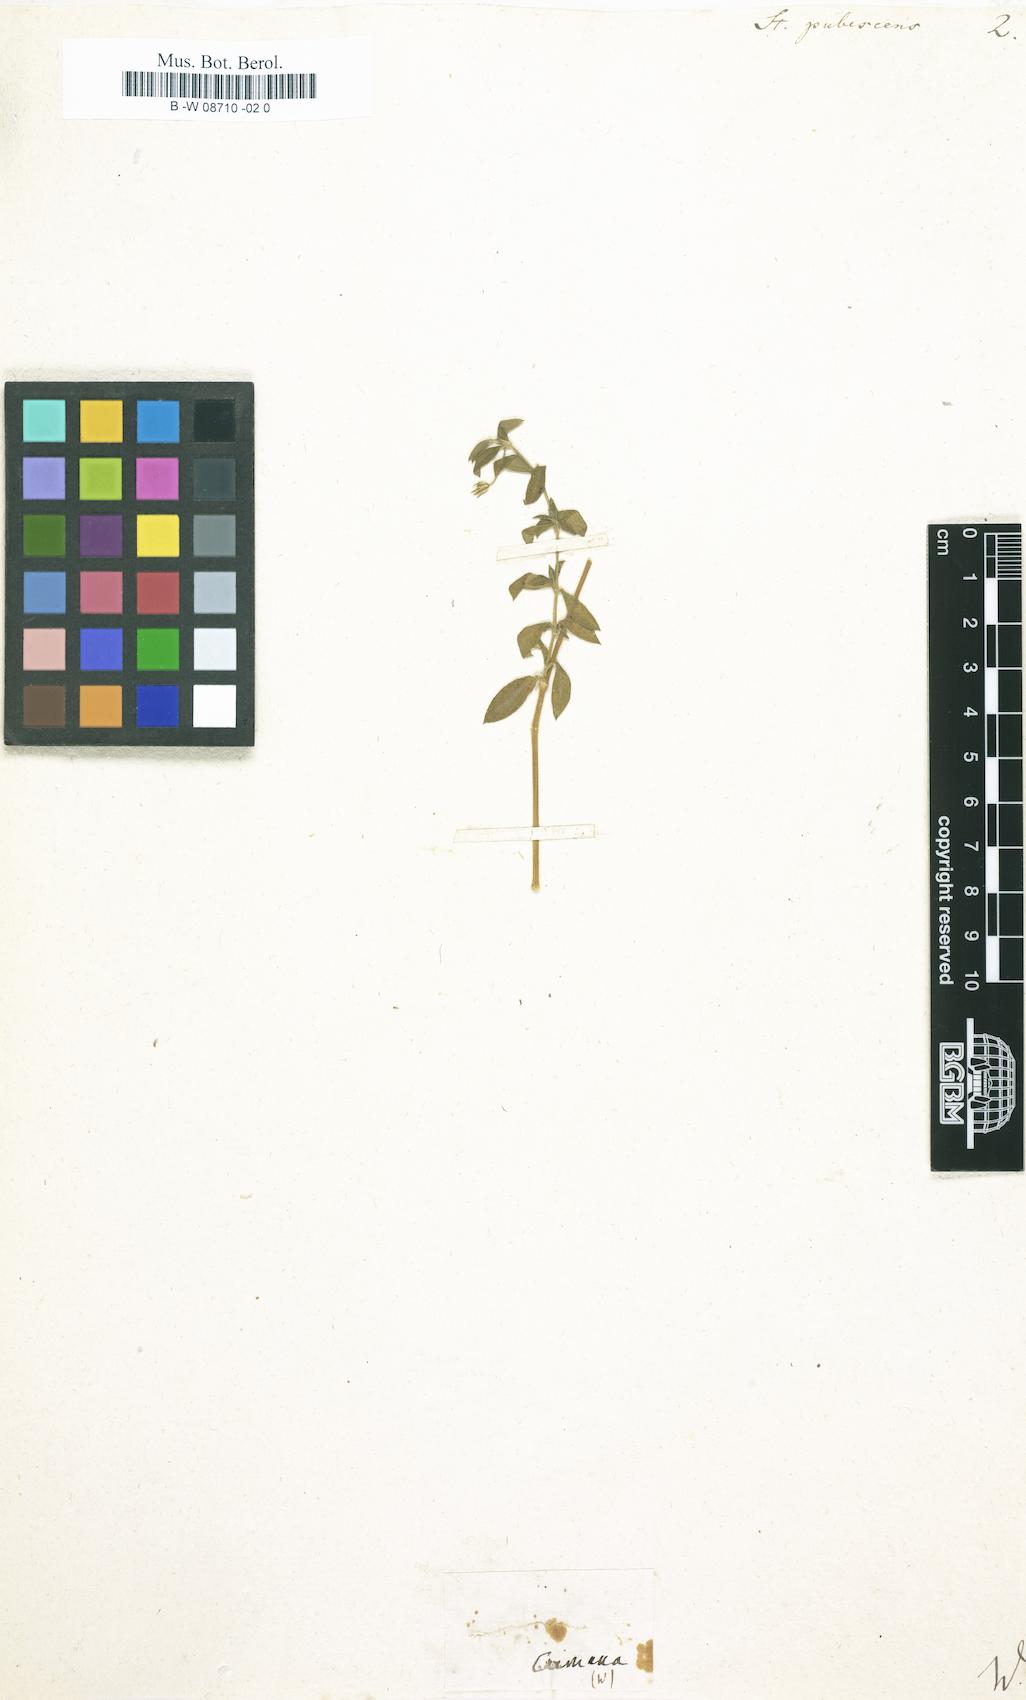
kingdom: Plantae
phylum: Tracheophyta
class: Magnoliopsida
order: Caryophyllales
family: Caryophyllaceae
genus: Arenaria
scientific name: Arenaria lanuginosa
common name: Spread sandwort
